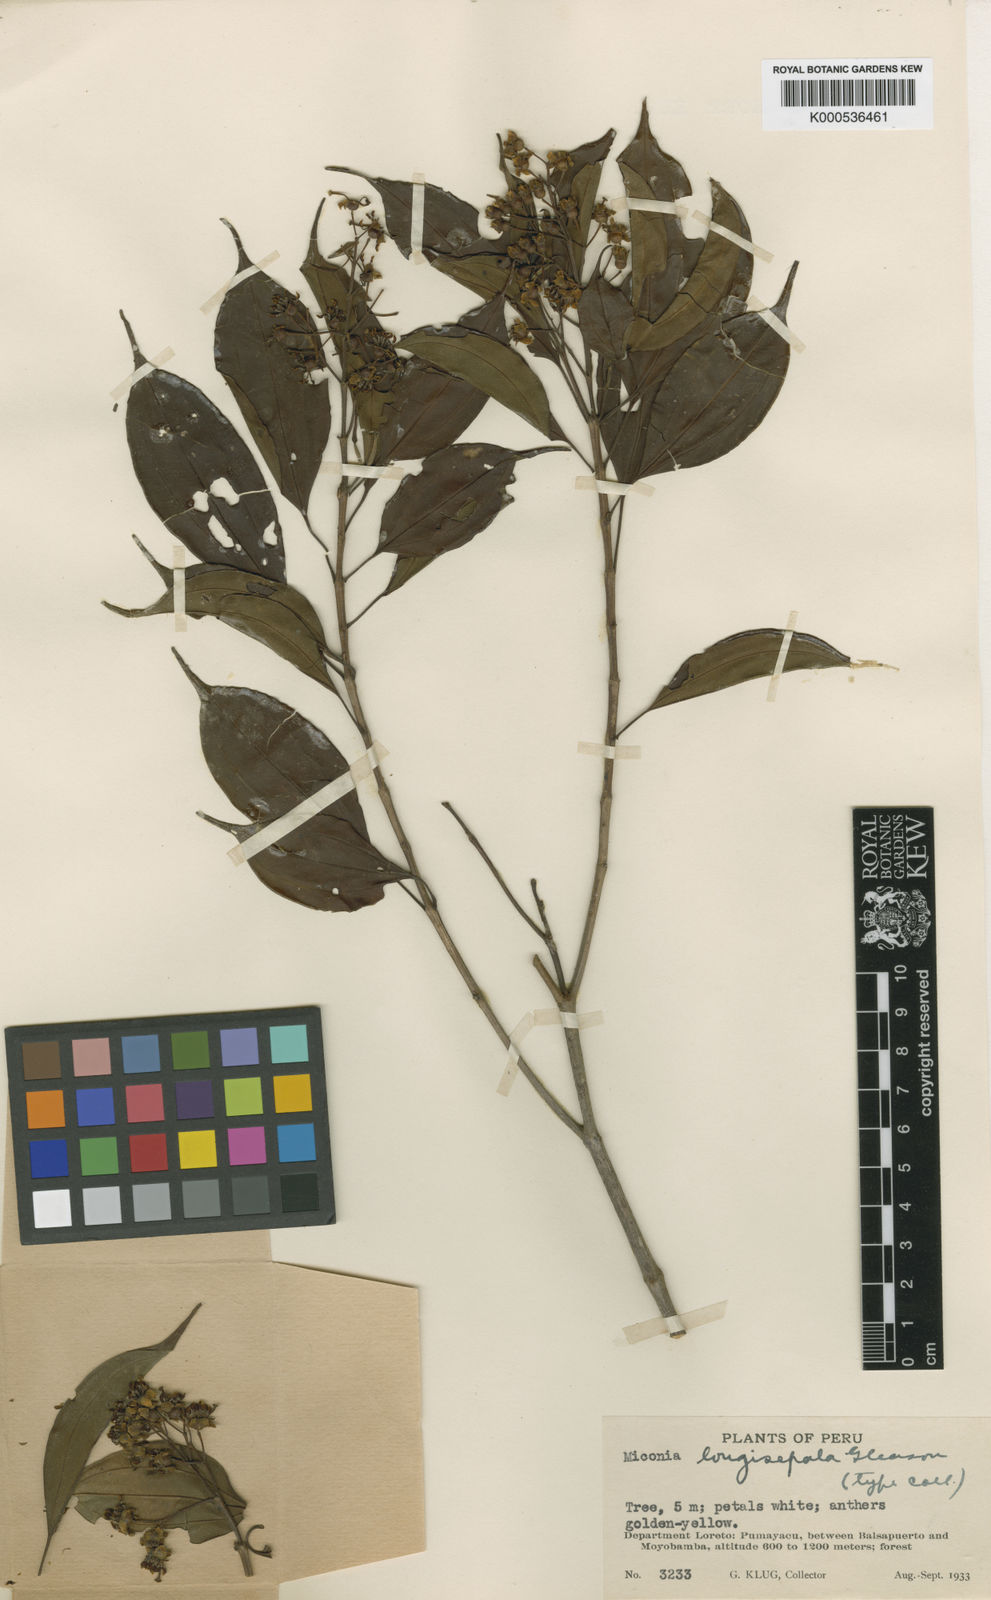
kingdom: Plantae
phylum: Tracheophyta
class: Magnoliopsida
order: Myrtales
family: Melastomataceae
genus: Miconia
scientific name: Miconia longisepala
